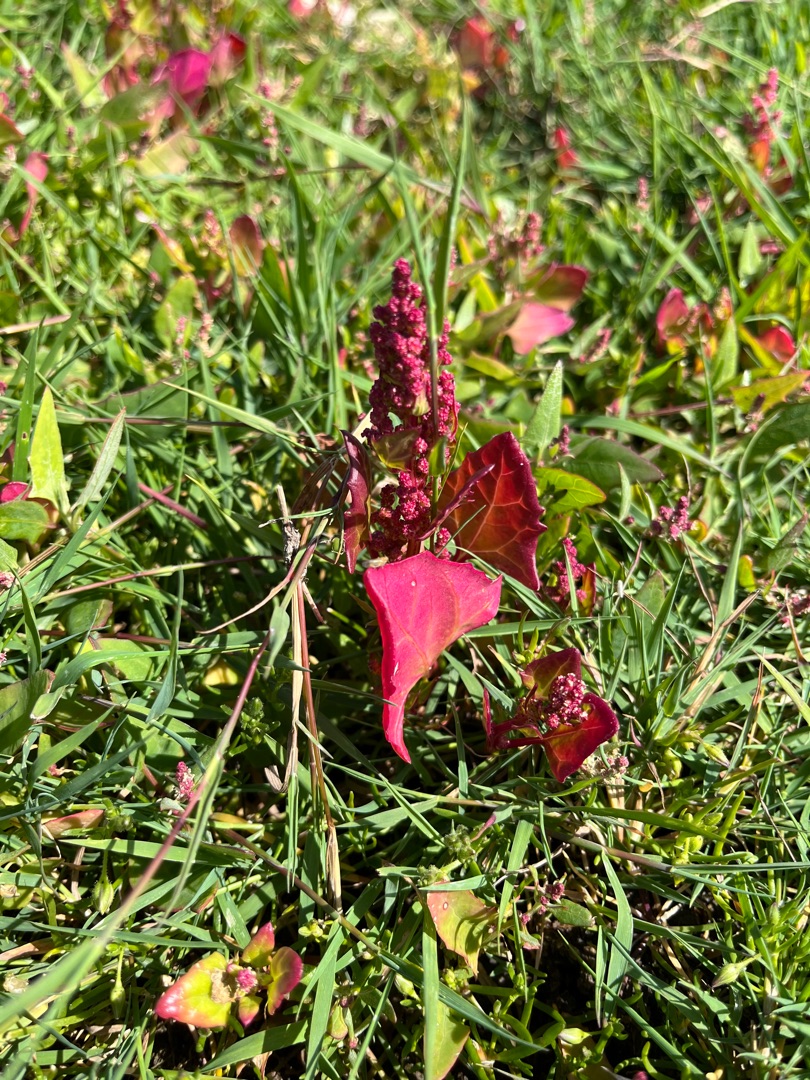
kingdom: Plantae
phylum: Tracheophyta
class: Magnoliopsida
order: Caryophyllales
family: Amaranthaceae
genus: Oxybasis
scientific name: Oxybasis rubra
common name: Rød gåsefod
